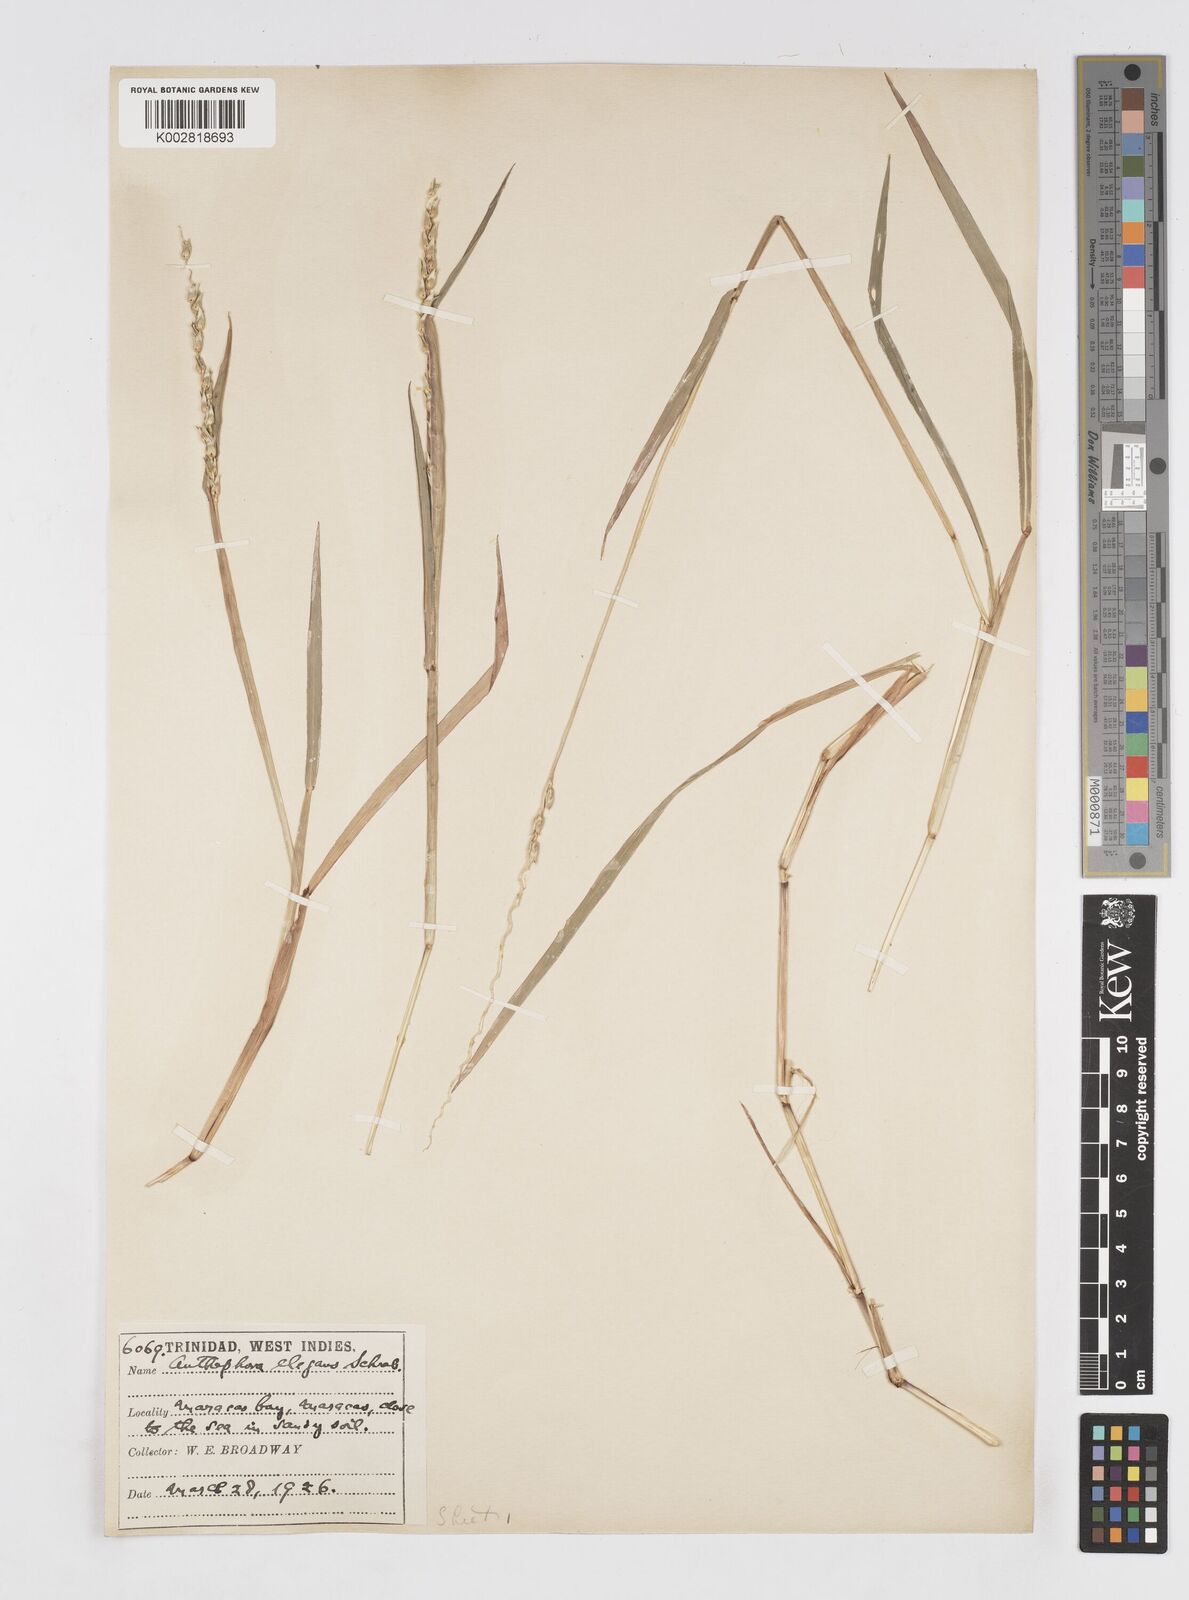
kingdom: Plantae
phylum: Tracheophyta
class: Liliopsida
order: Poales
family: Poaceae
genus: Anthephora
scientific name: Anthephora hermaphrodita
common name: Oldfield grass
